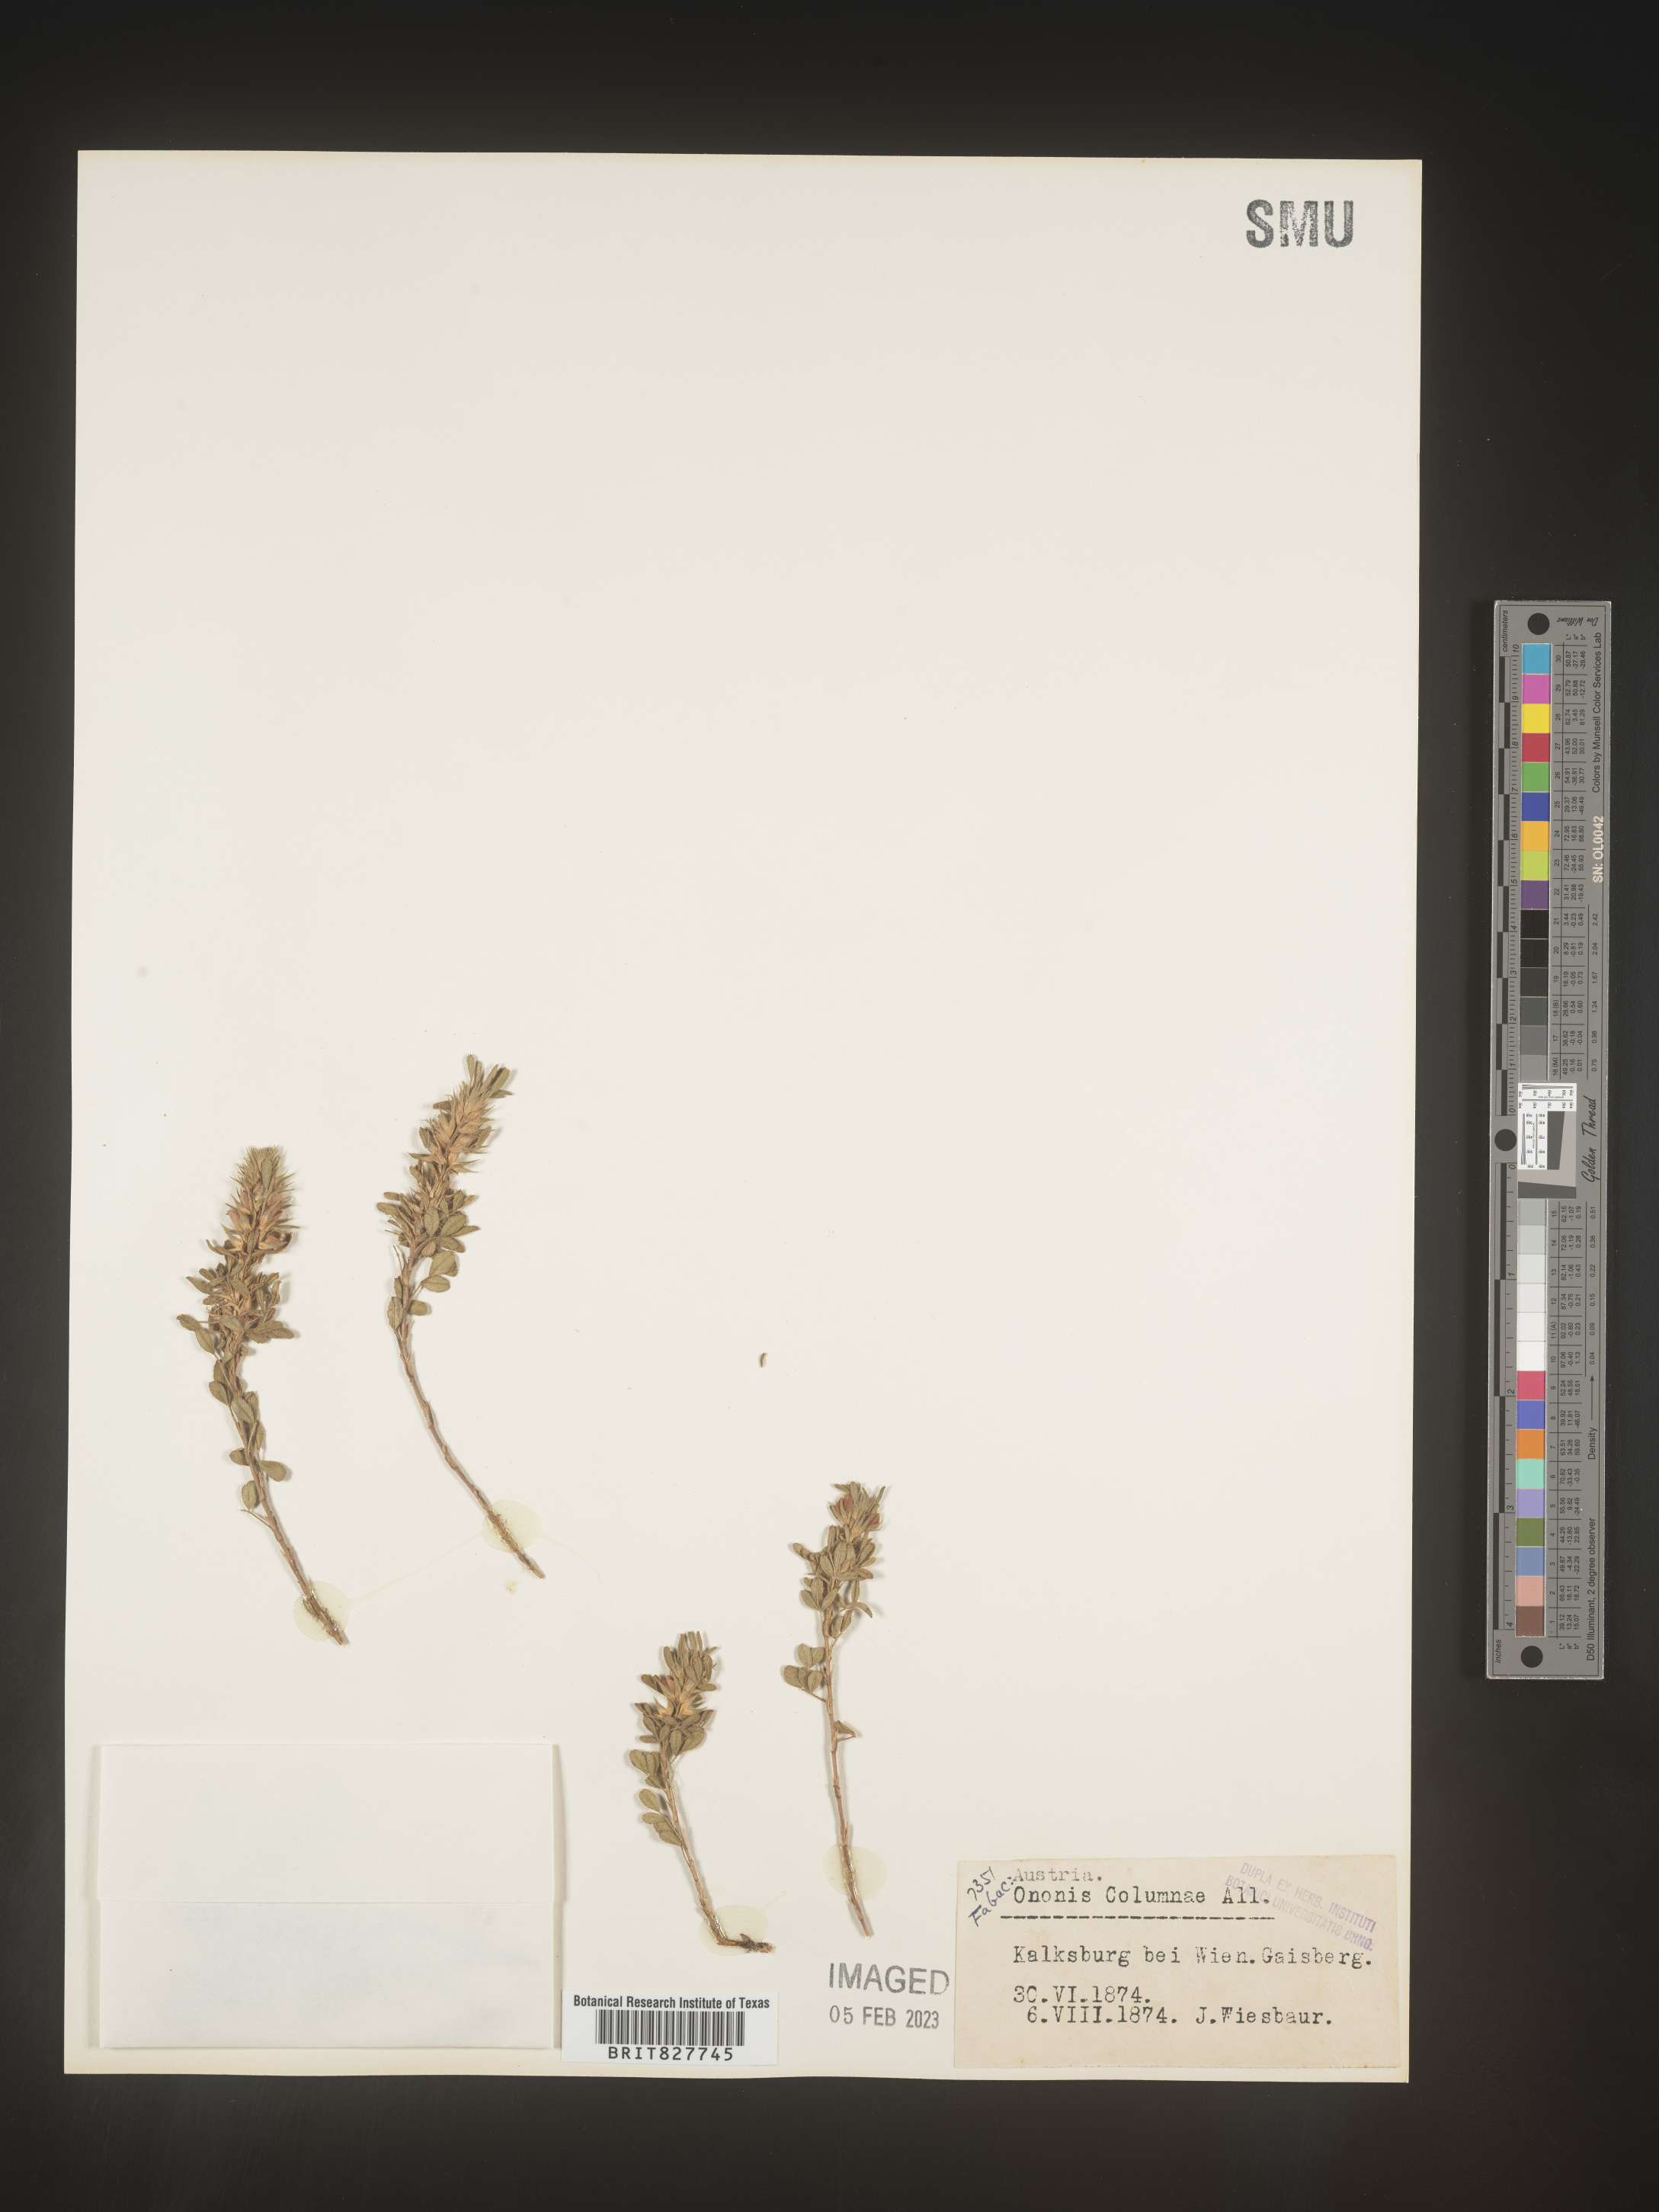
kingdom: Plantae
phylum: Tracheophyta
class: Magnoliopsida
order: Fabales
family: Fabaceae
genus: Ononis
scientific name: Ononis
